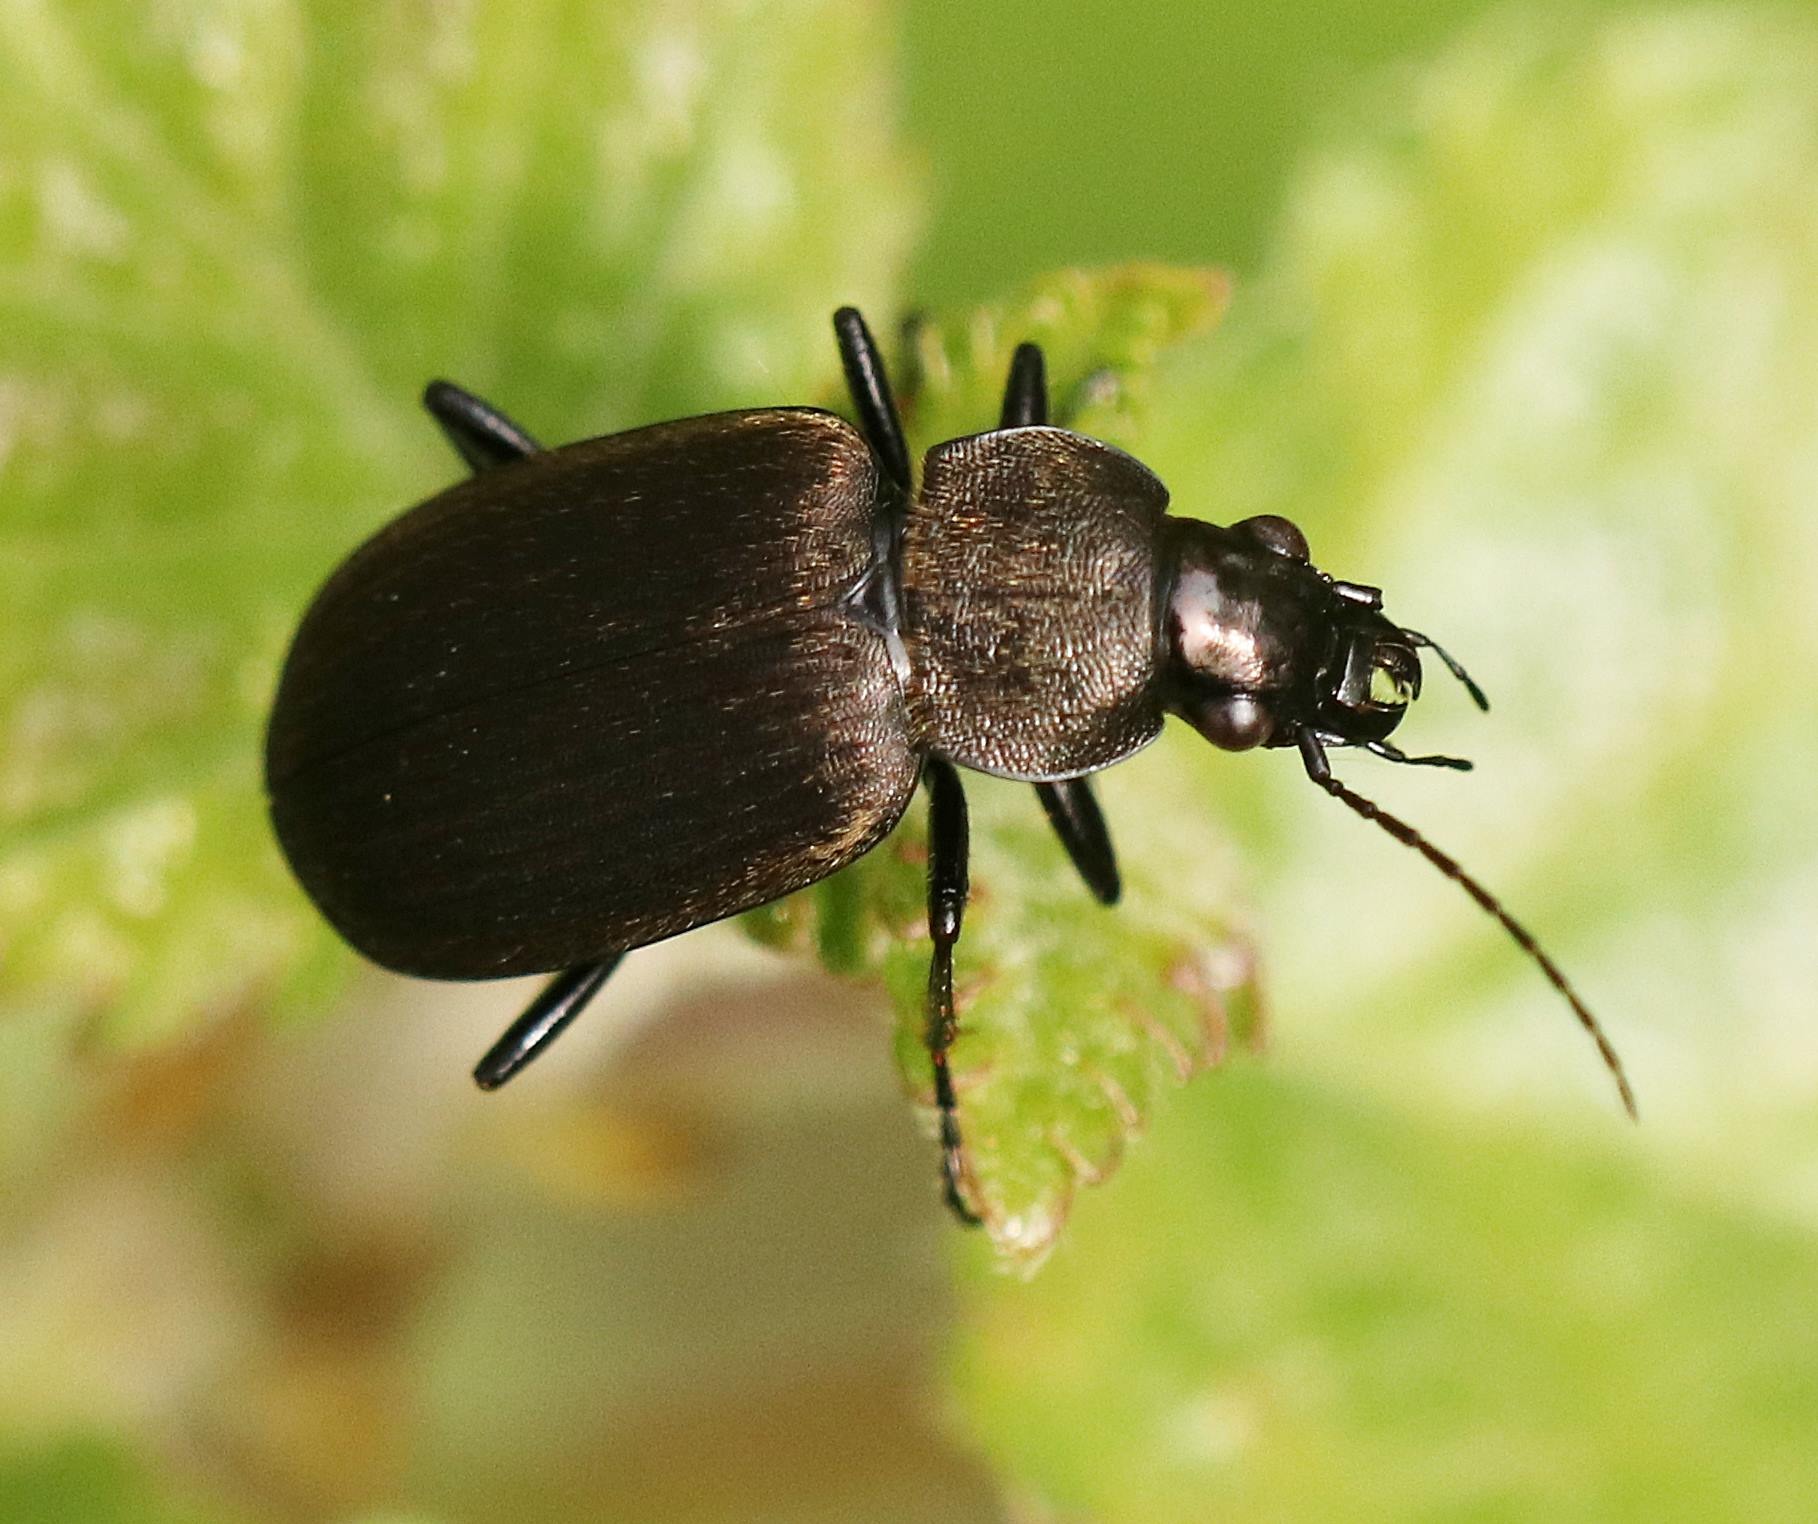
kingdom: Animalia
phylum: Arthropoda
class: Insecta
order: Coleoptera
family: Carabidae
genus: Chlaenius
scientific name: Chlaenius tristis
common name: Sort fløjlsløber
